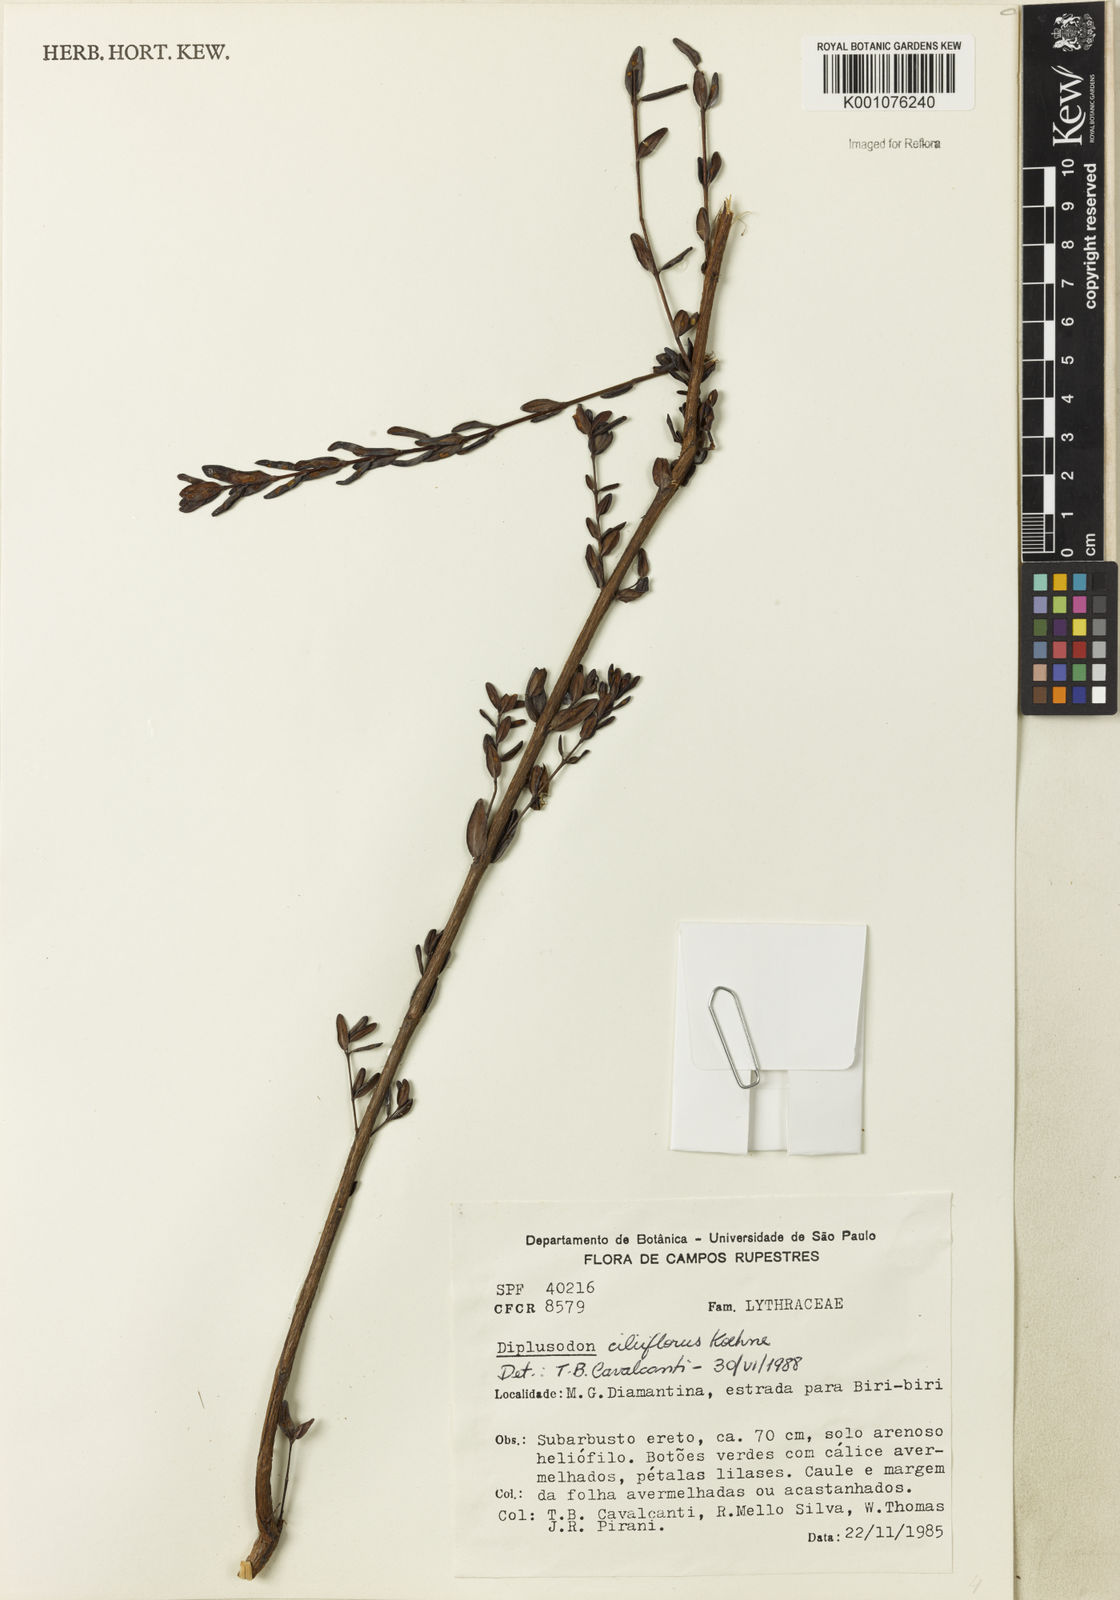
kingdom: Plantae
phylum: Tracheophyta
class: Magnoliopsida
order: Myrtales
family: Lythraceae
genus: Diplusodon
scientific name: Diplusodon ciliiflorus
